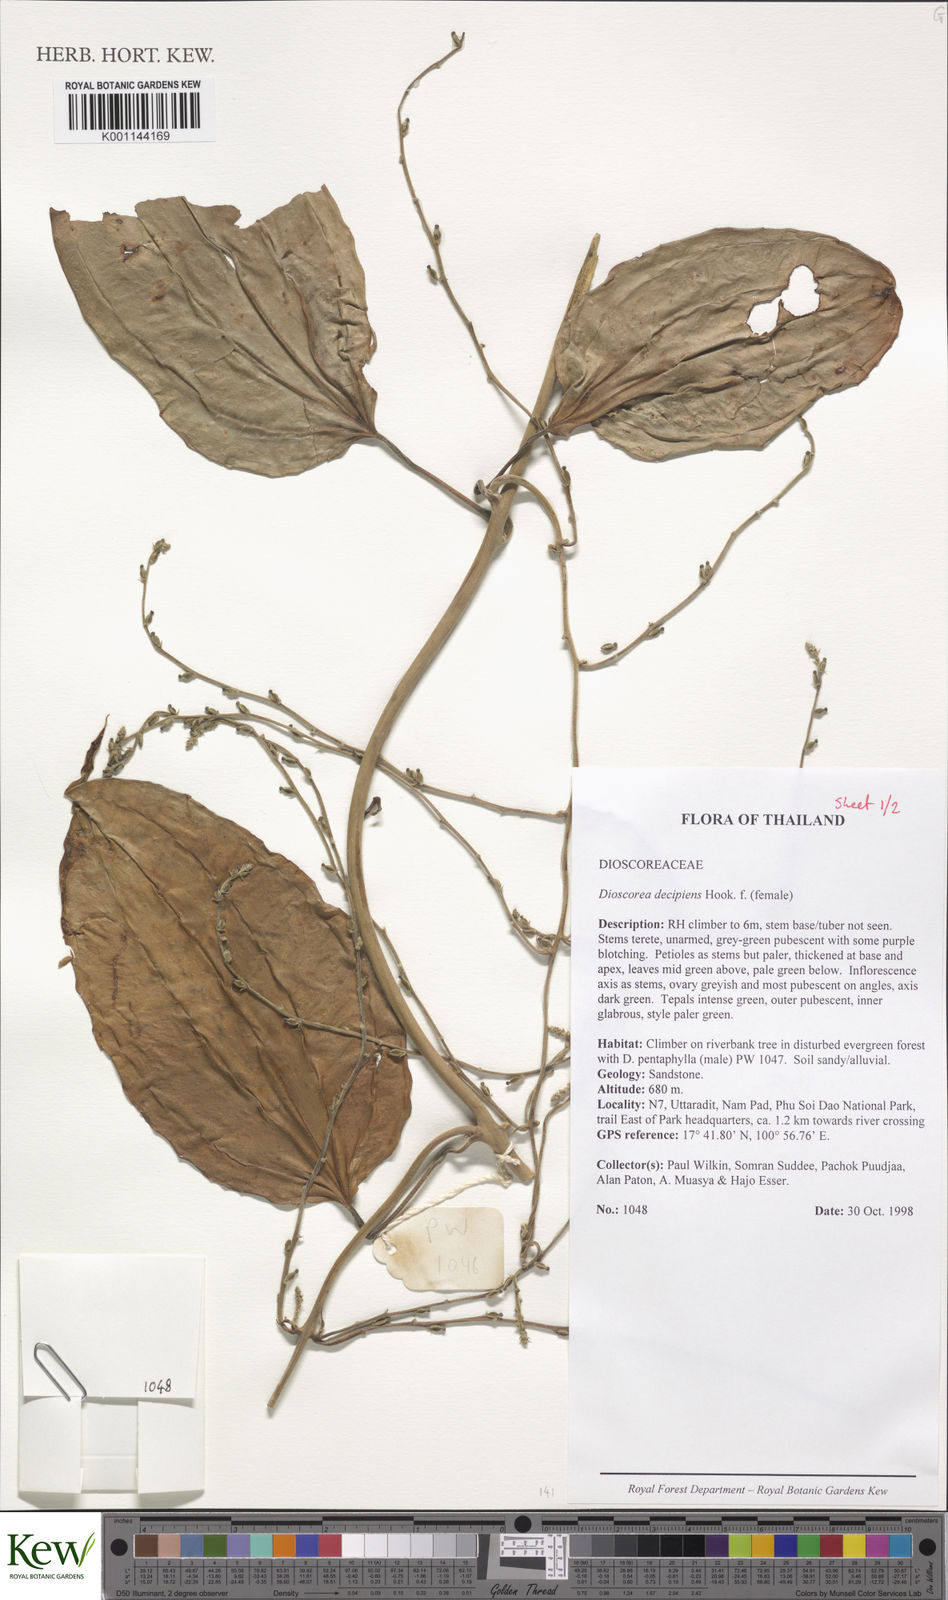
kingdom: Plantae
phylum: Tracheophyta
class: Liliopsida
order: Dioscoreales
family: Dioscoreaceae
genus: Dioscorea
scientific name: Dioscorea decipiens
